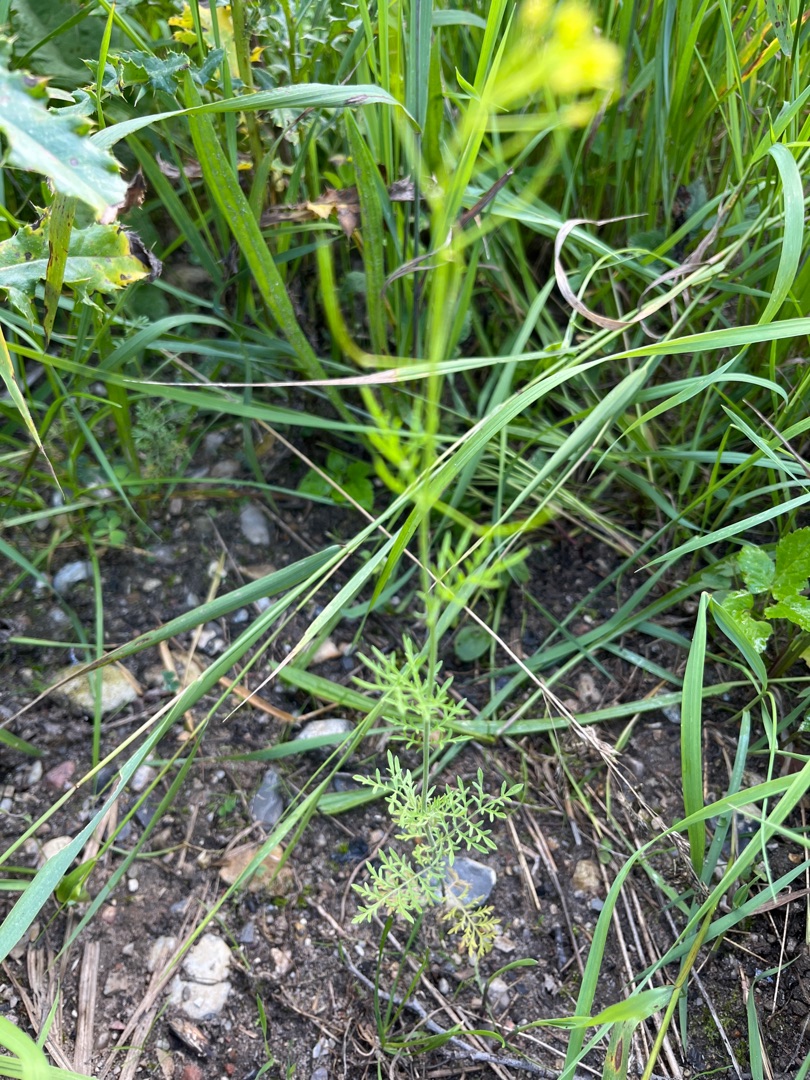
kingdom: Plantae
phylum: Tracheophyta
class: Magnoliopsida
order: Brassicales
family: Brassicaceae
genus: Descurainia
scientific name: Descurainia sophia
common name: Finbladet vejsennep
